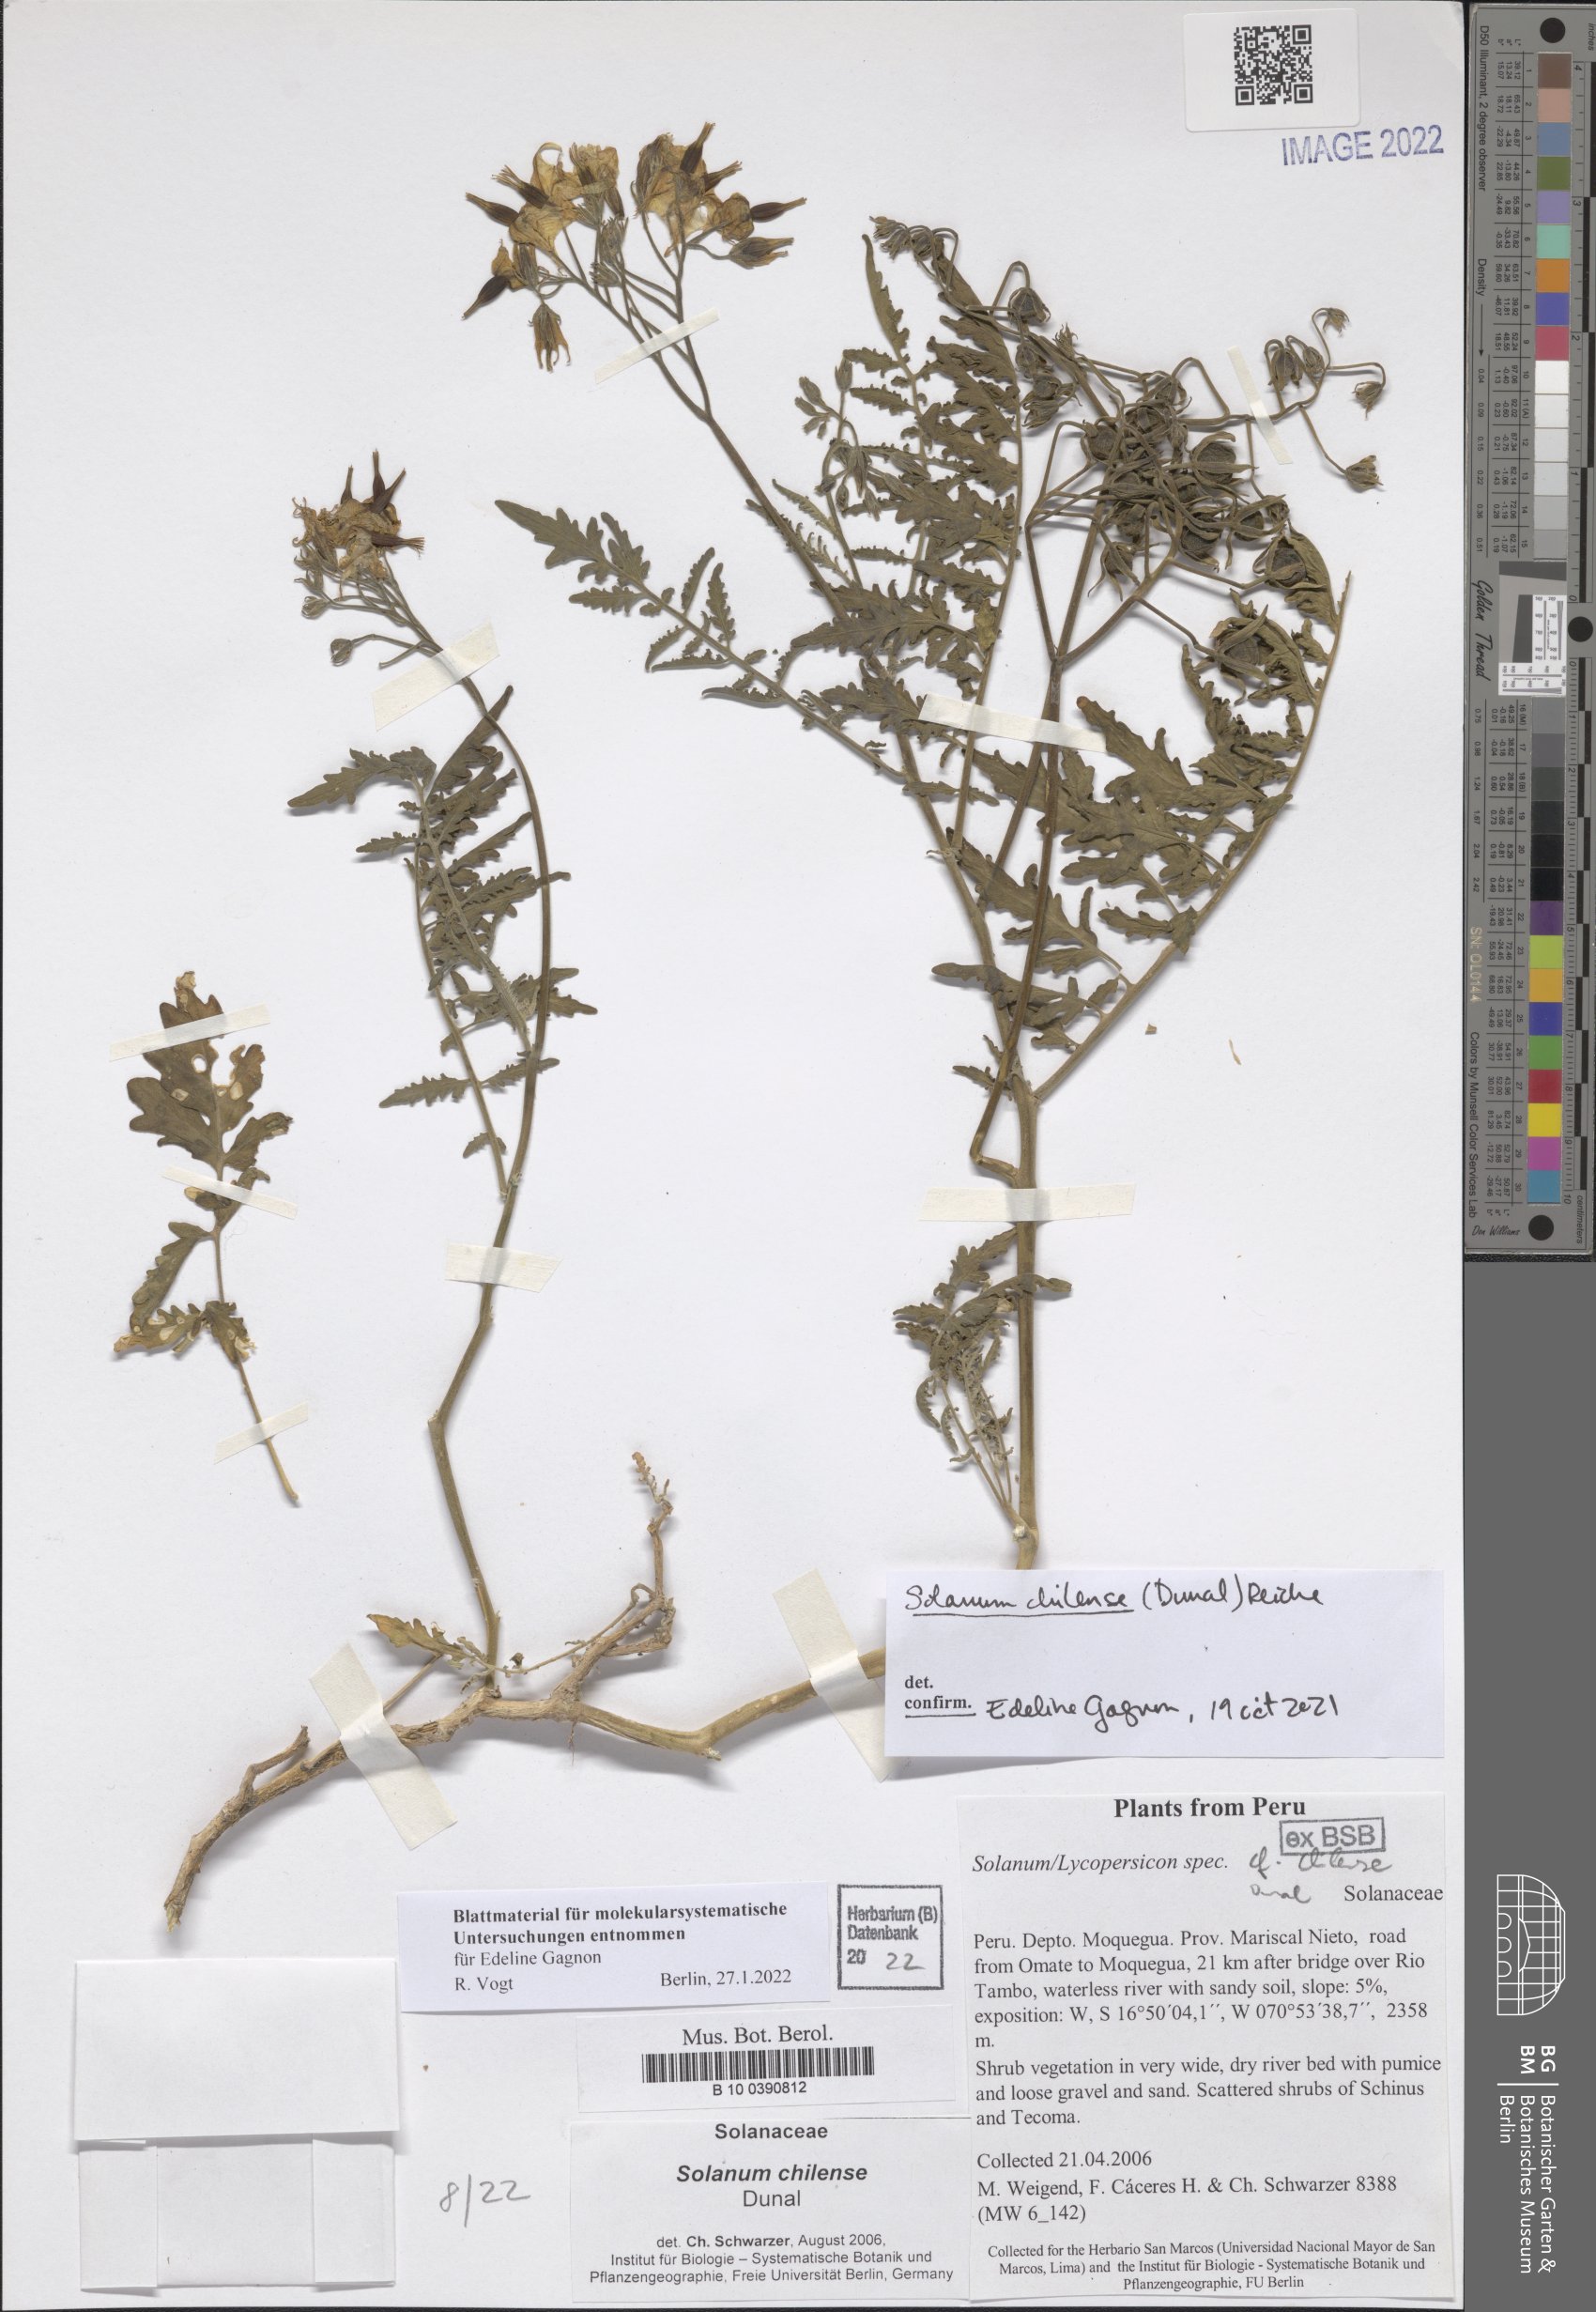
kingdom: Plantae
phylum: Tracheophyta
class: Magnoliopsida
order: Solanales
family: Solanaceae
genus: Solanum
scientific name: Solanum chilense
